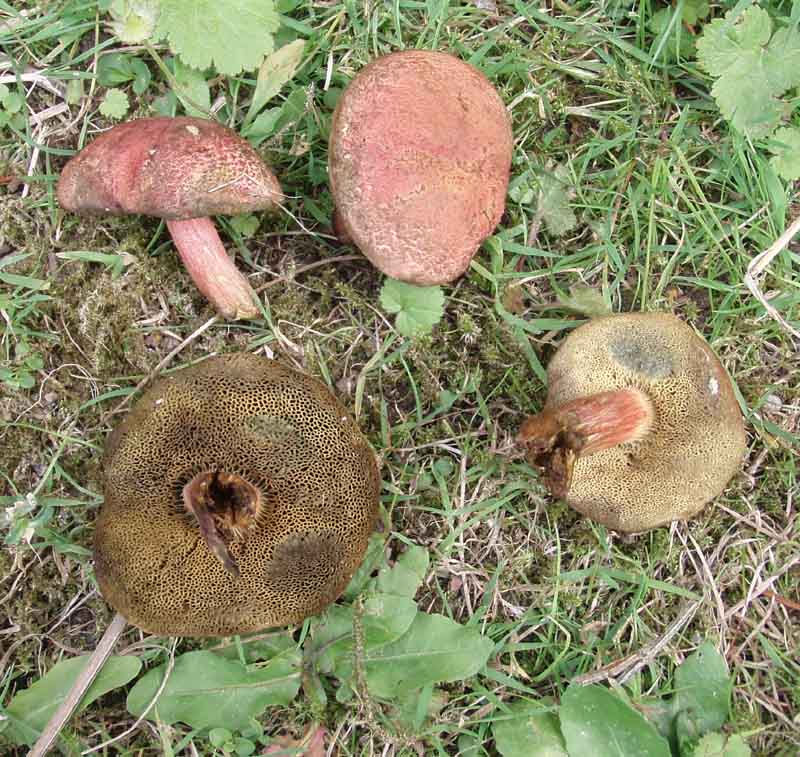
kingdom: Fungi
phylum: Basidiomycota
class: Agaricomycetes
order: Boletales
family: Boletaceae
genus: Hortiboletus
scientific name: Hortiboletus rubellus
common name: blodrød rørhat
